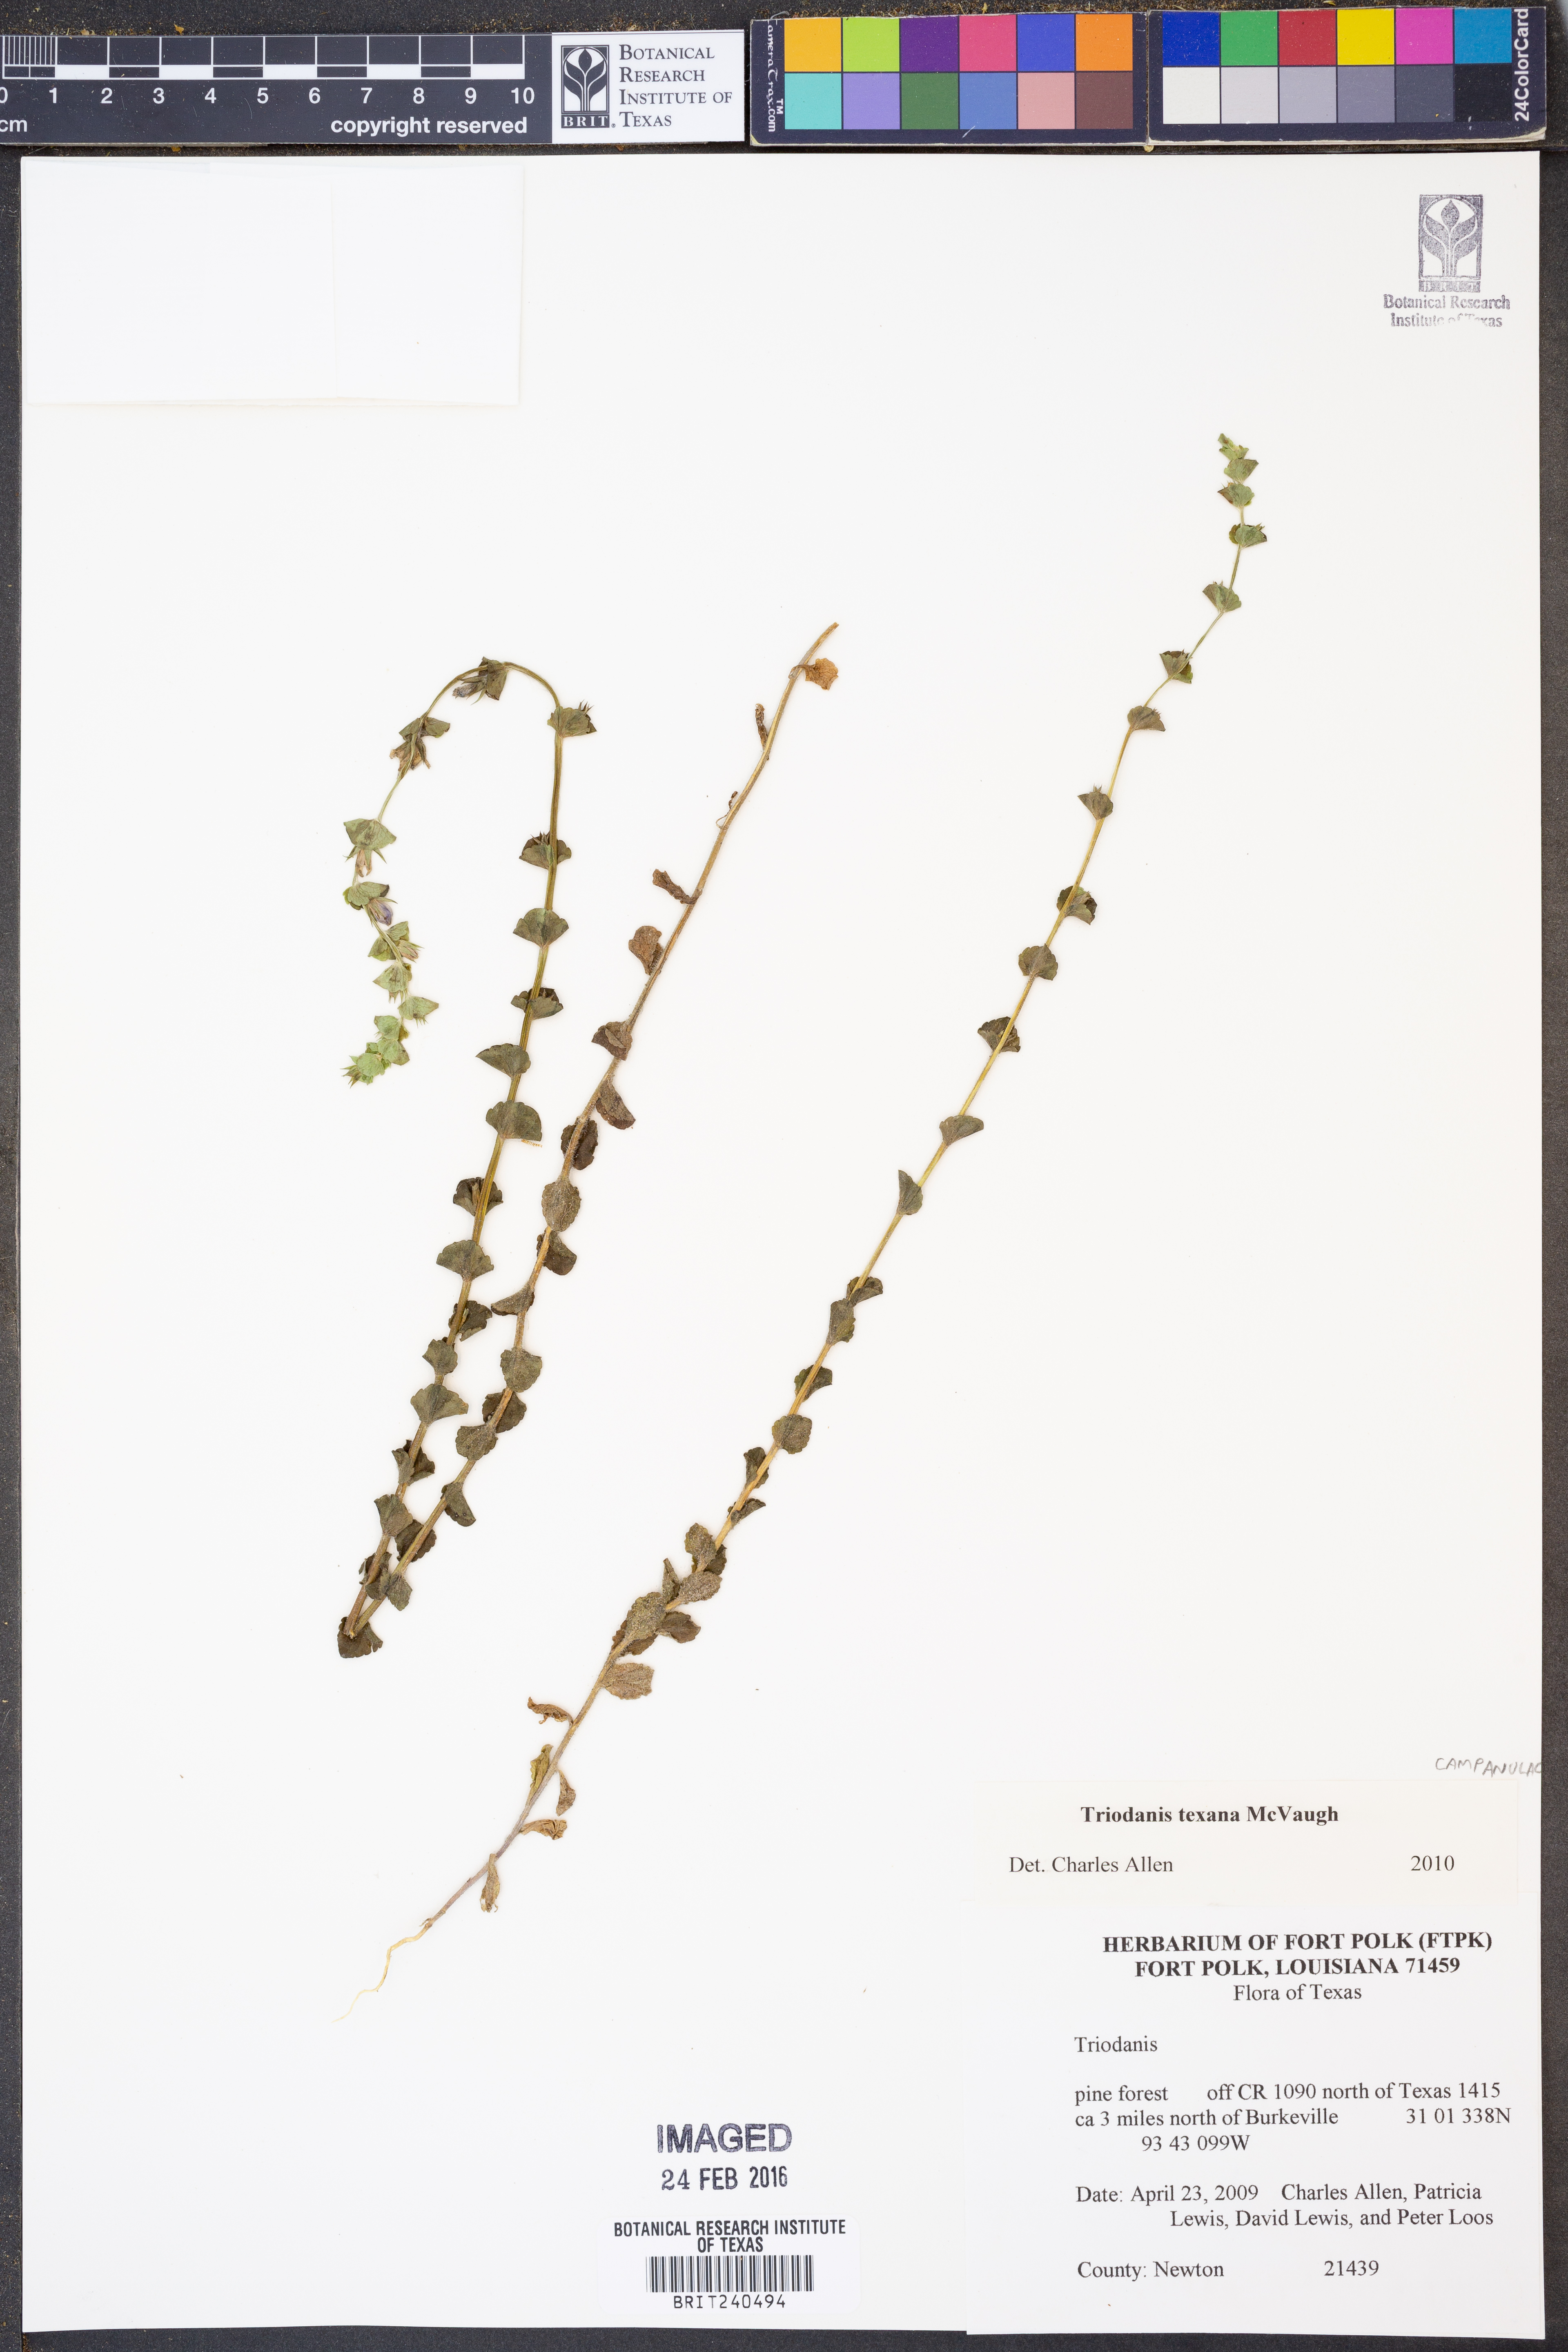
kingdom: Plantae
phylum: Tracheophyta
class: Magnoliopsida
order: Asterales
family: Campanulaceae
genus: Triodanis
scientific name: Triodanis texana
